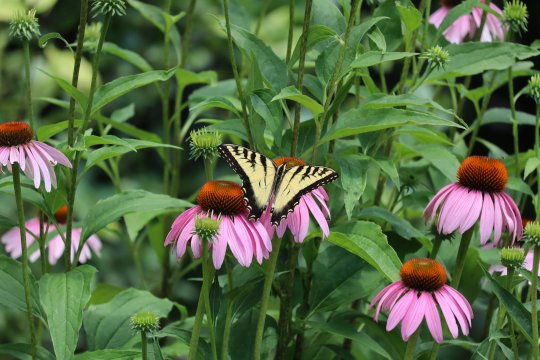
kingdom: Animalia
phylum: Arthropoda
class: Insecta
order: Lepidoptera
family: Papilionidae
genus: Pterourus
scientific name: Pterourus canadensis
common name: Canadian Tiger Swallowtail
